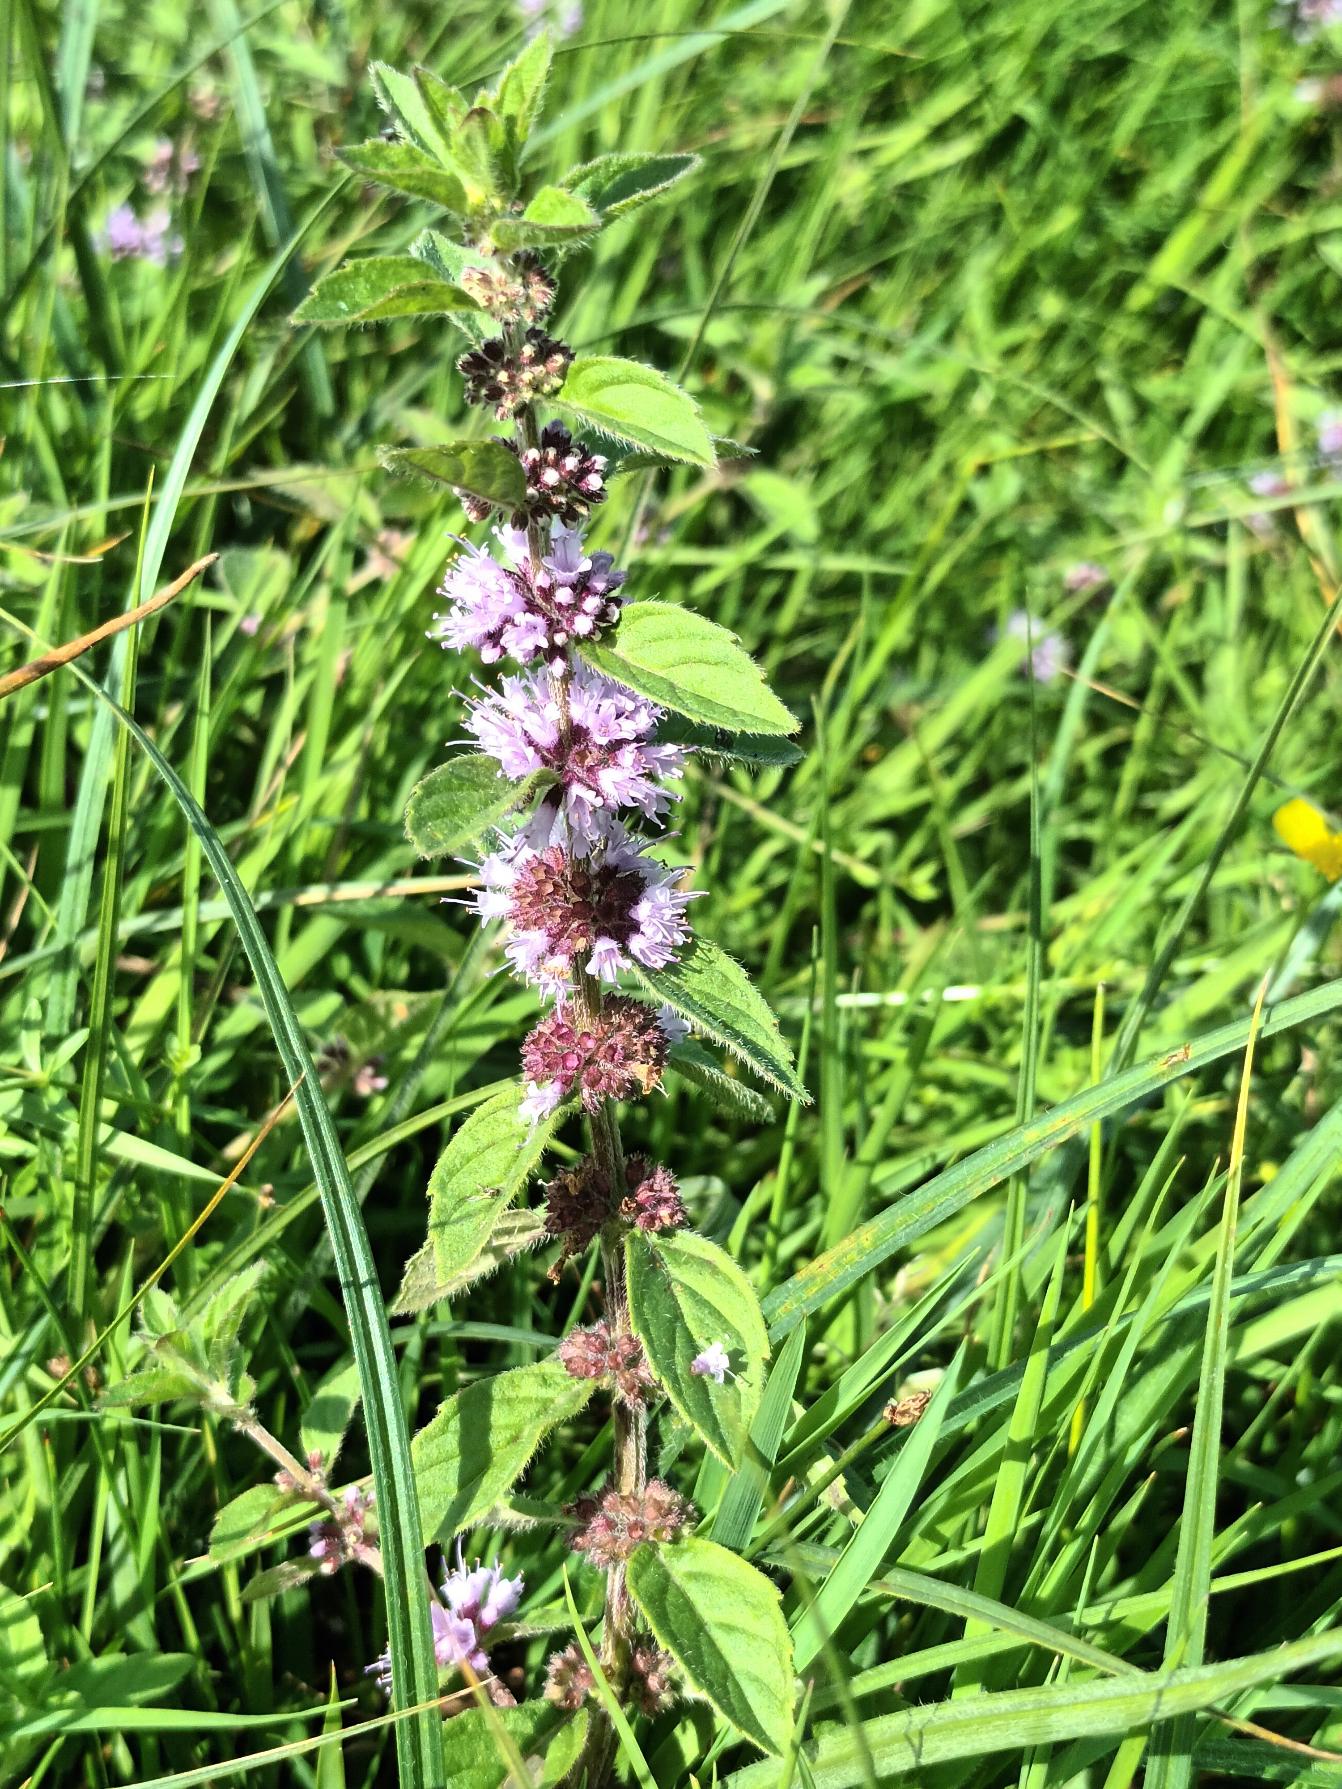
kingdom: Plantae
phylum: Tracheophyta
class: Magnoliopsida
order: Lamiales
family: Lamiaceae
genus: Mentha
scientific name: Mentha arvensis
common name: Ager-mynte
